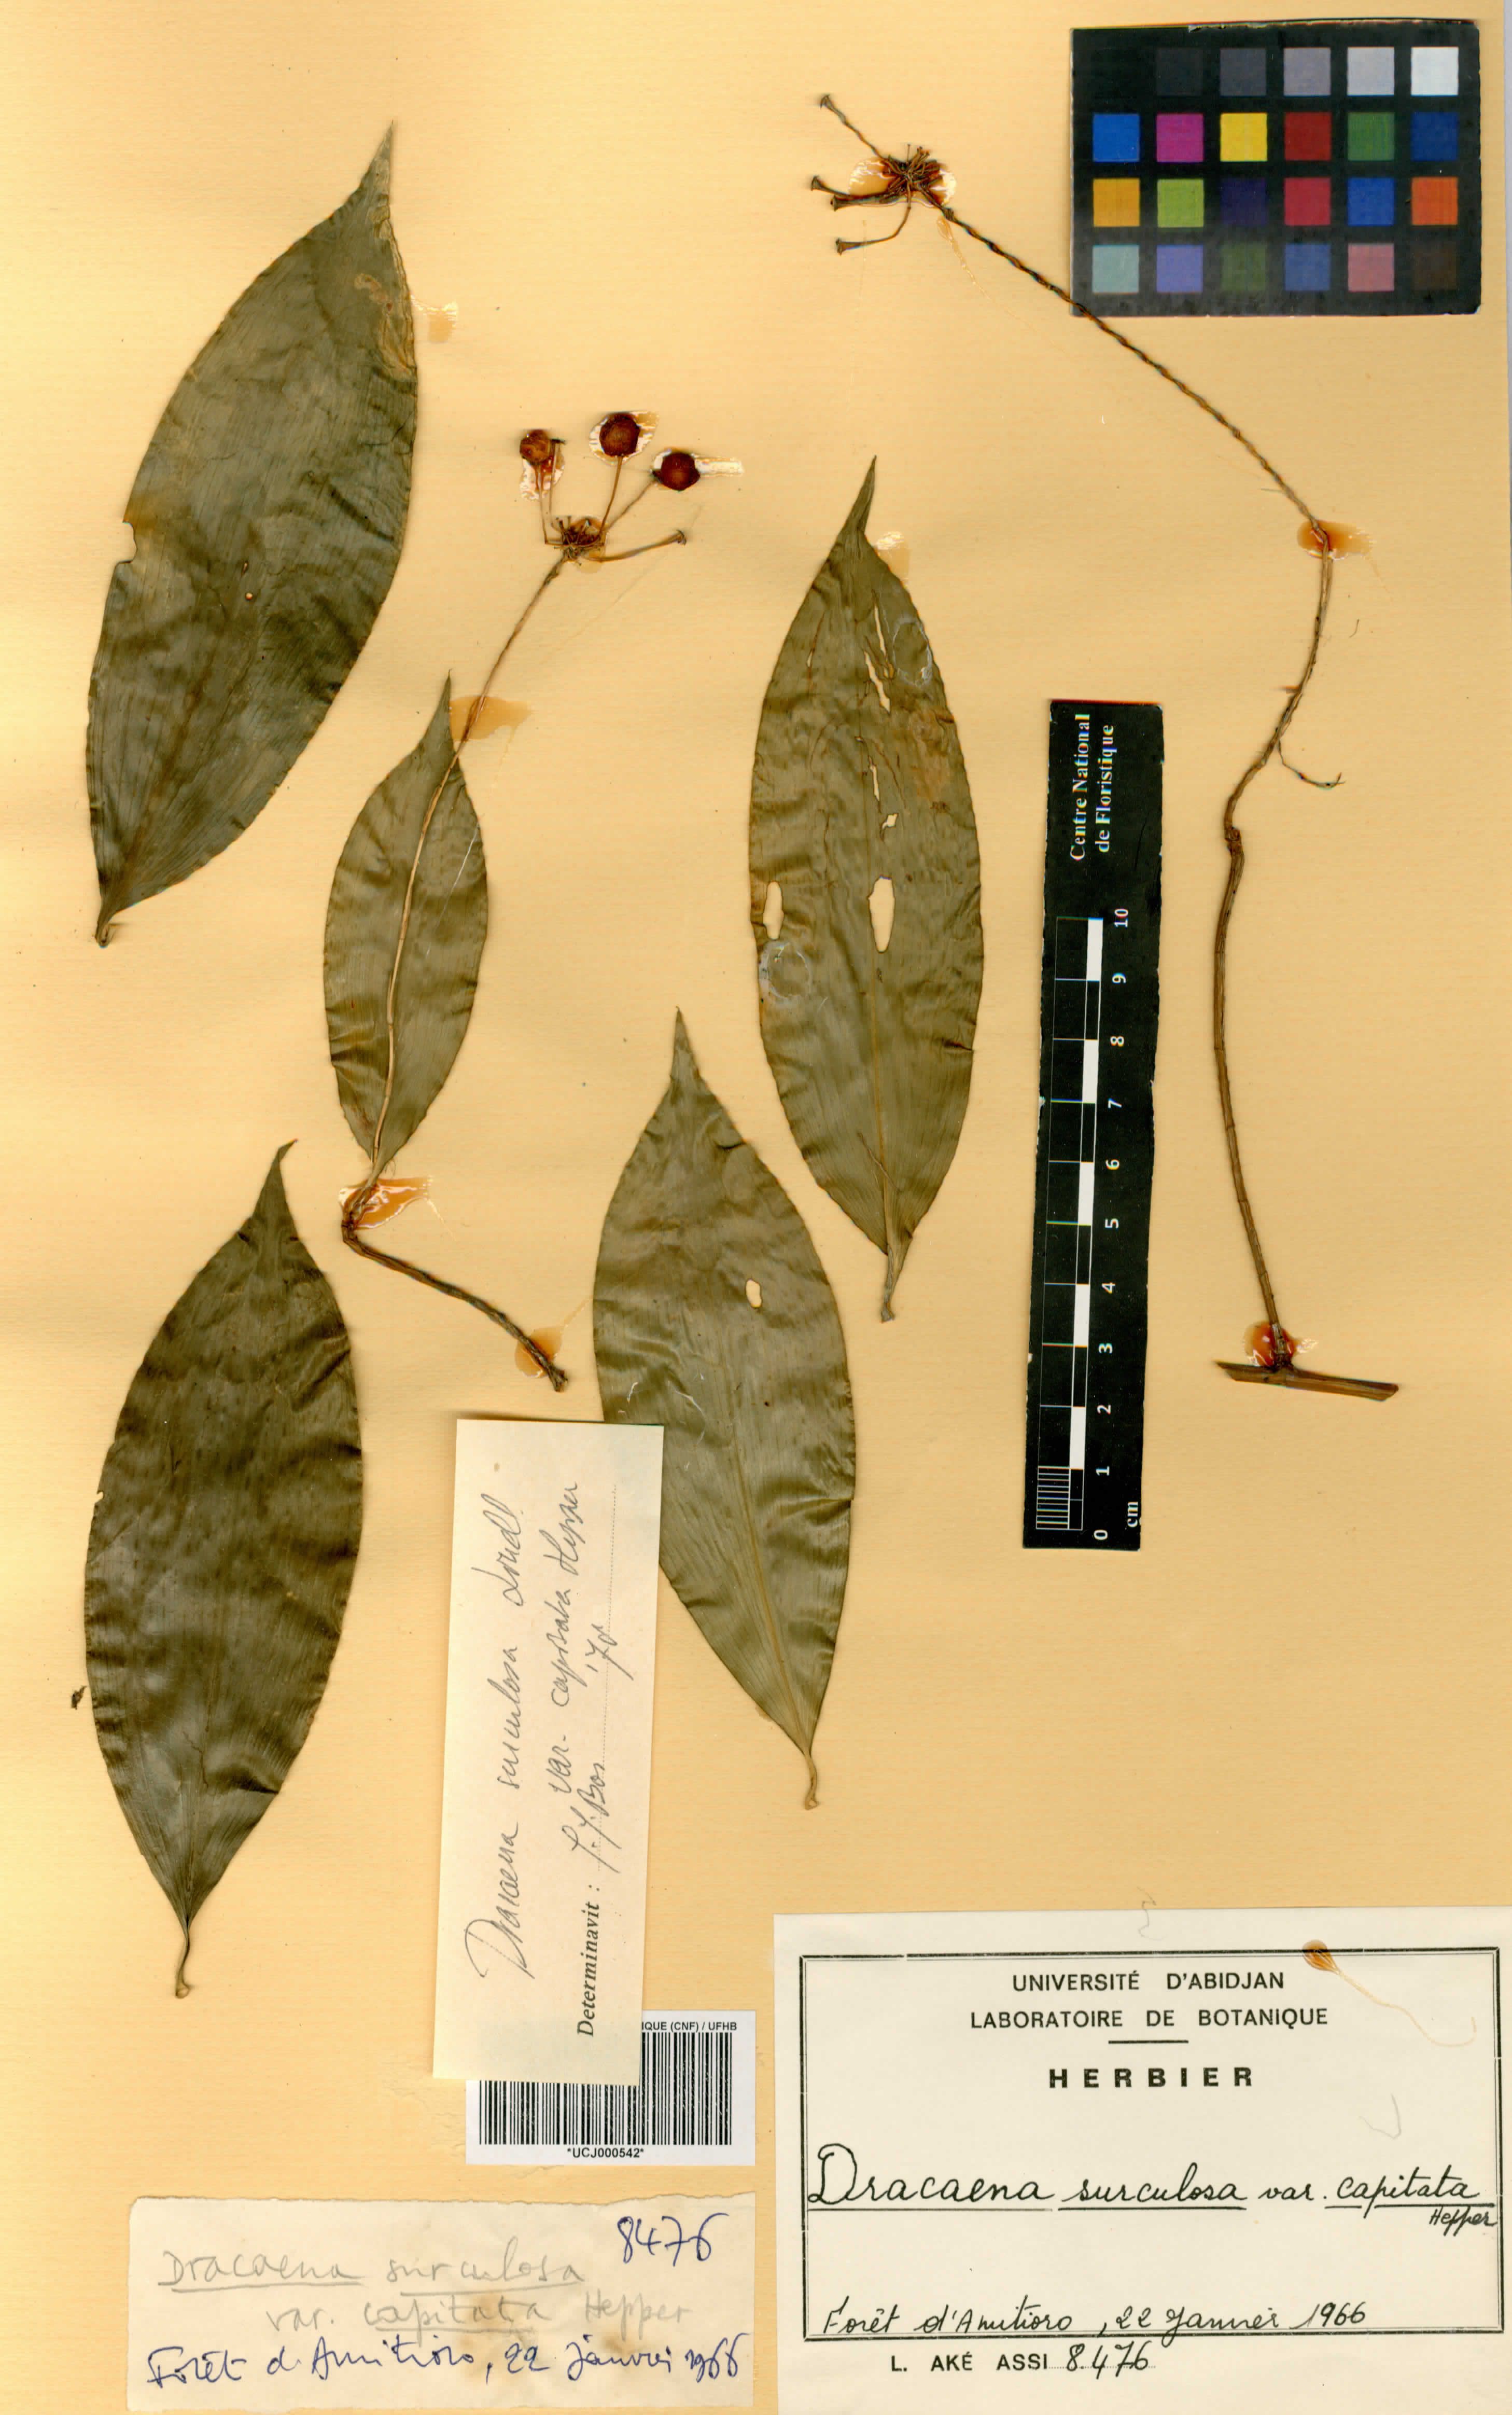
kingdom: Plantae
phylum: Tracheophyta
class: Liliopsida
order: Asparagales
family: Asparagaceae
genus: Dracaena
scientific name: Dracaena surculosa
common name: Spotted dracaena
